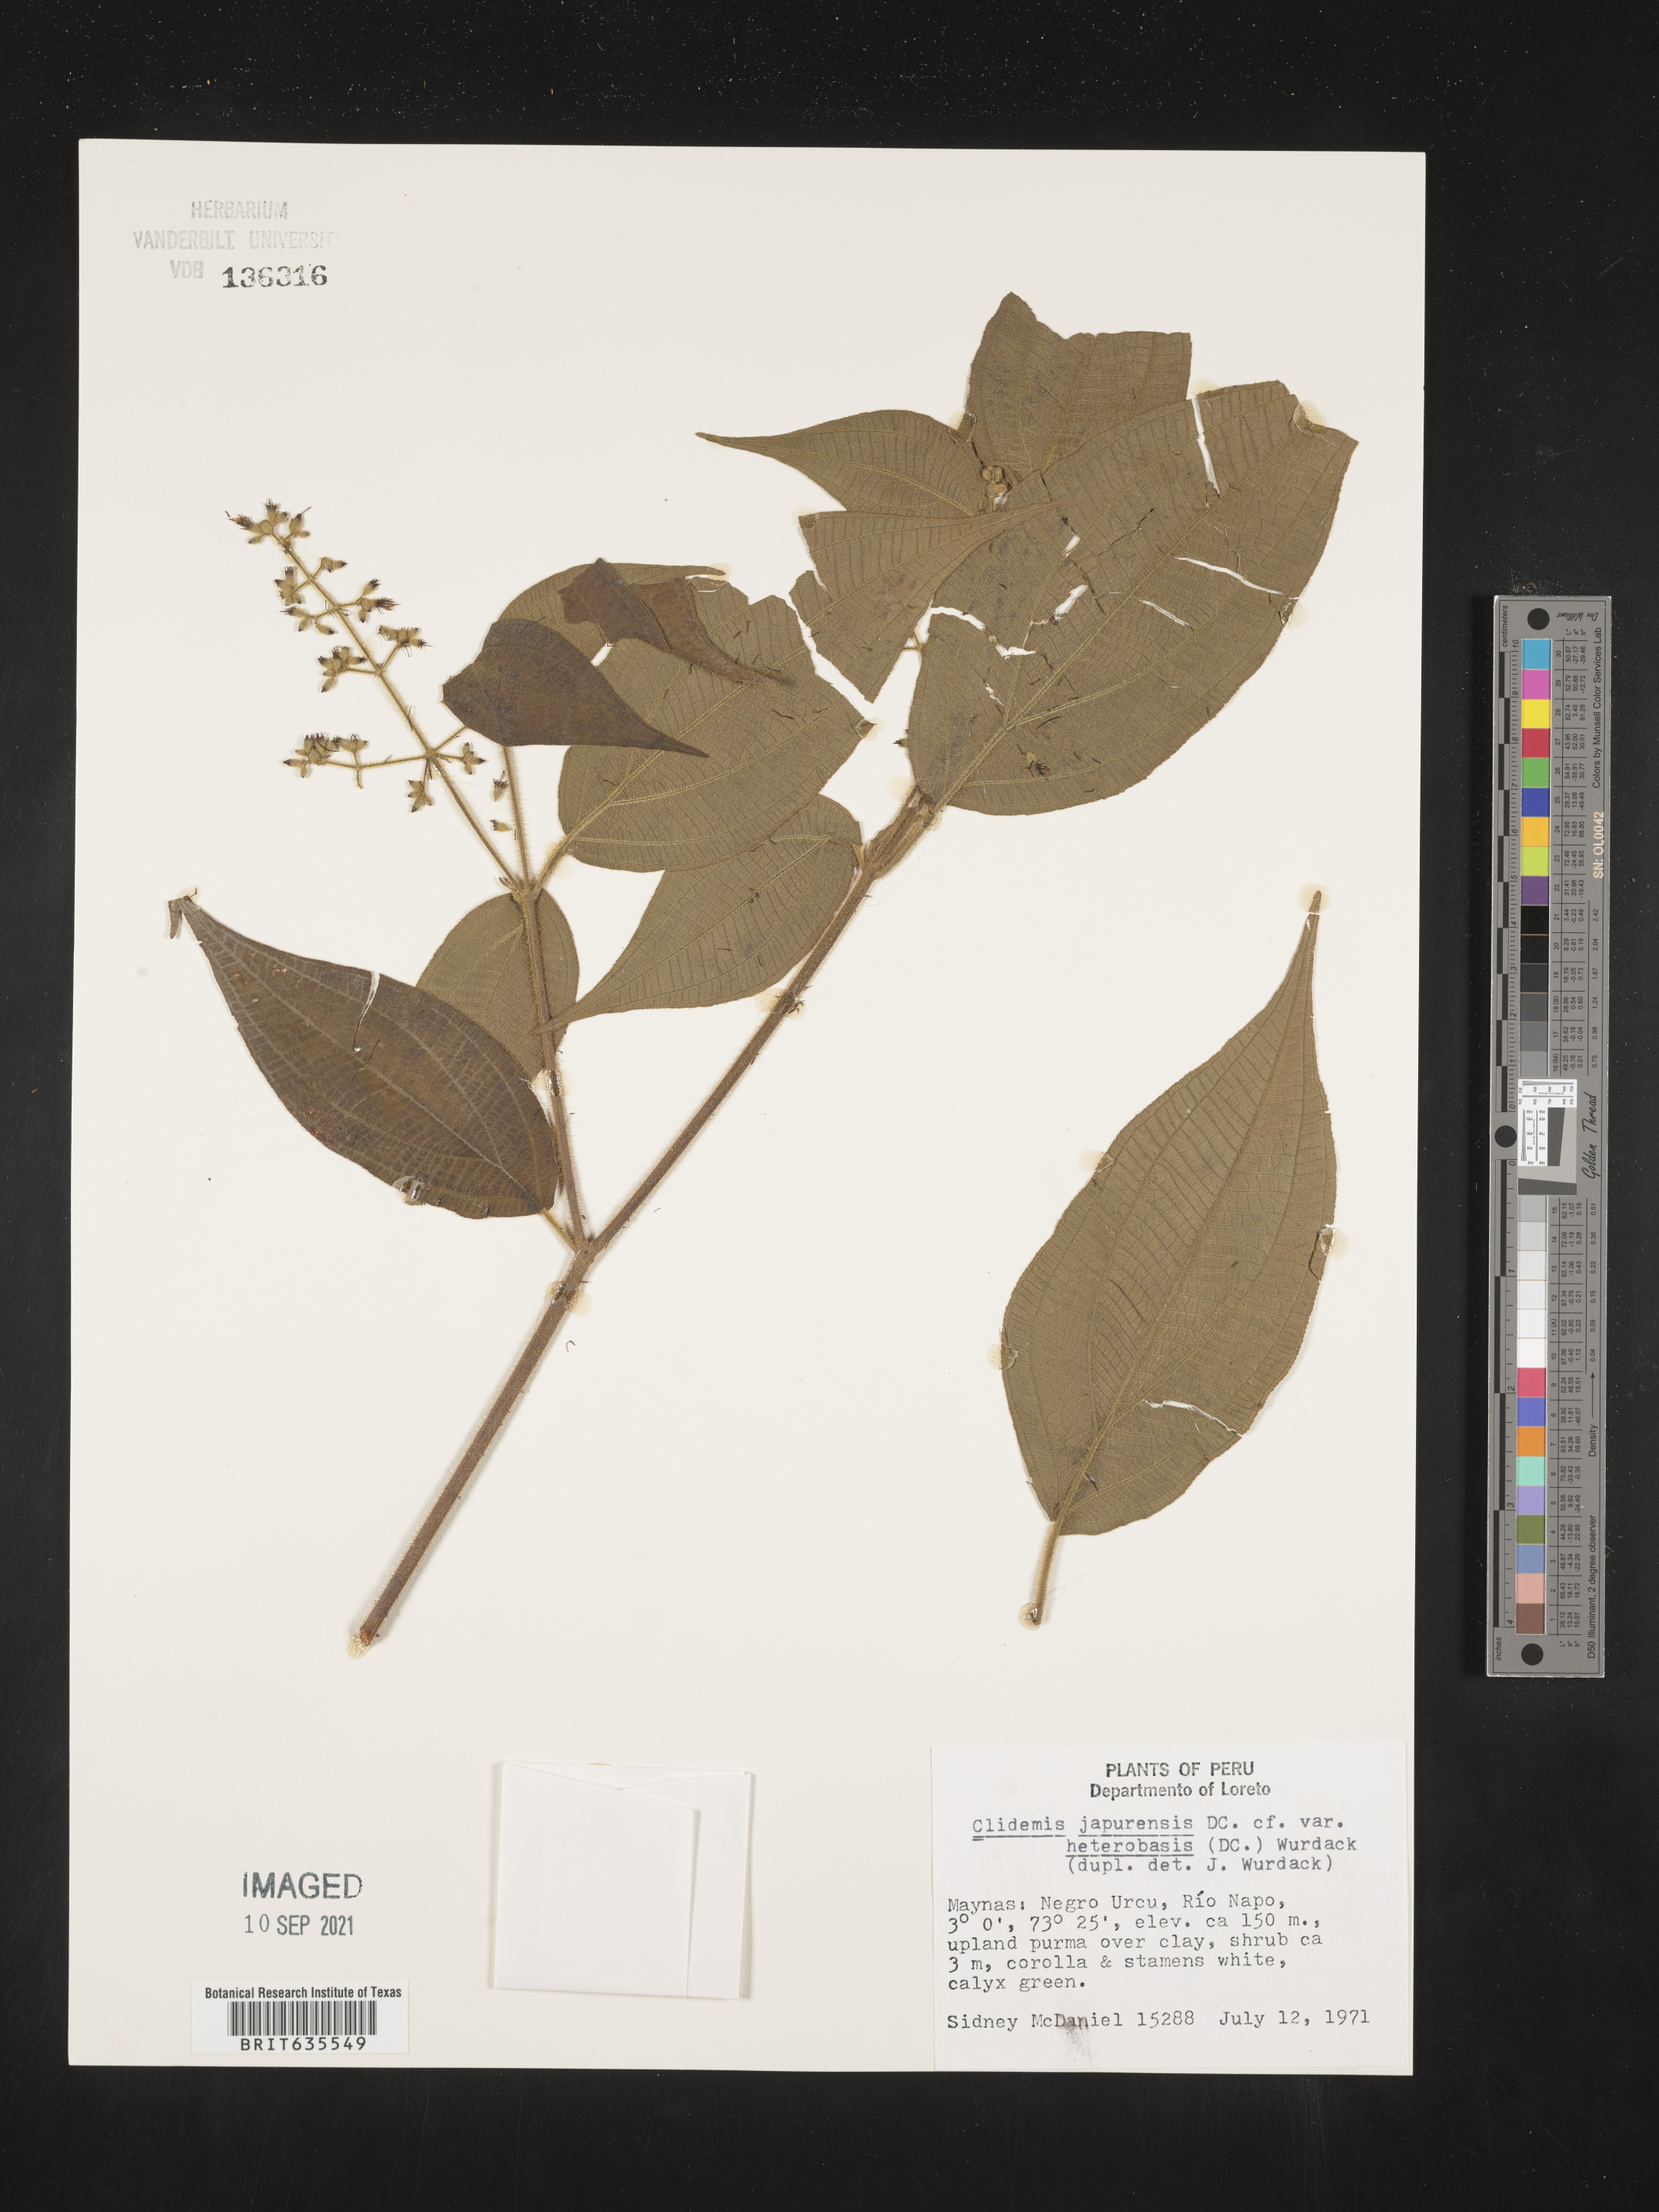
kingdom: Plantae
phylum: Tracheophyta
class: Magnoliopsida
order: Myrtales
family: Melastomataceae
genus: Miconia
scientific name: Miconia
